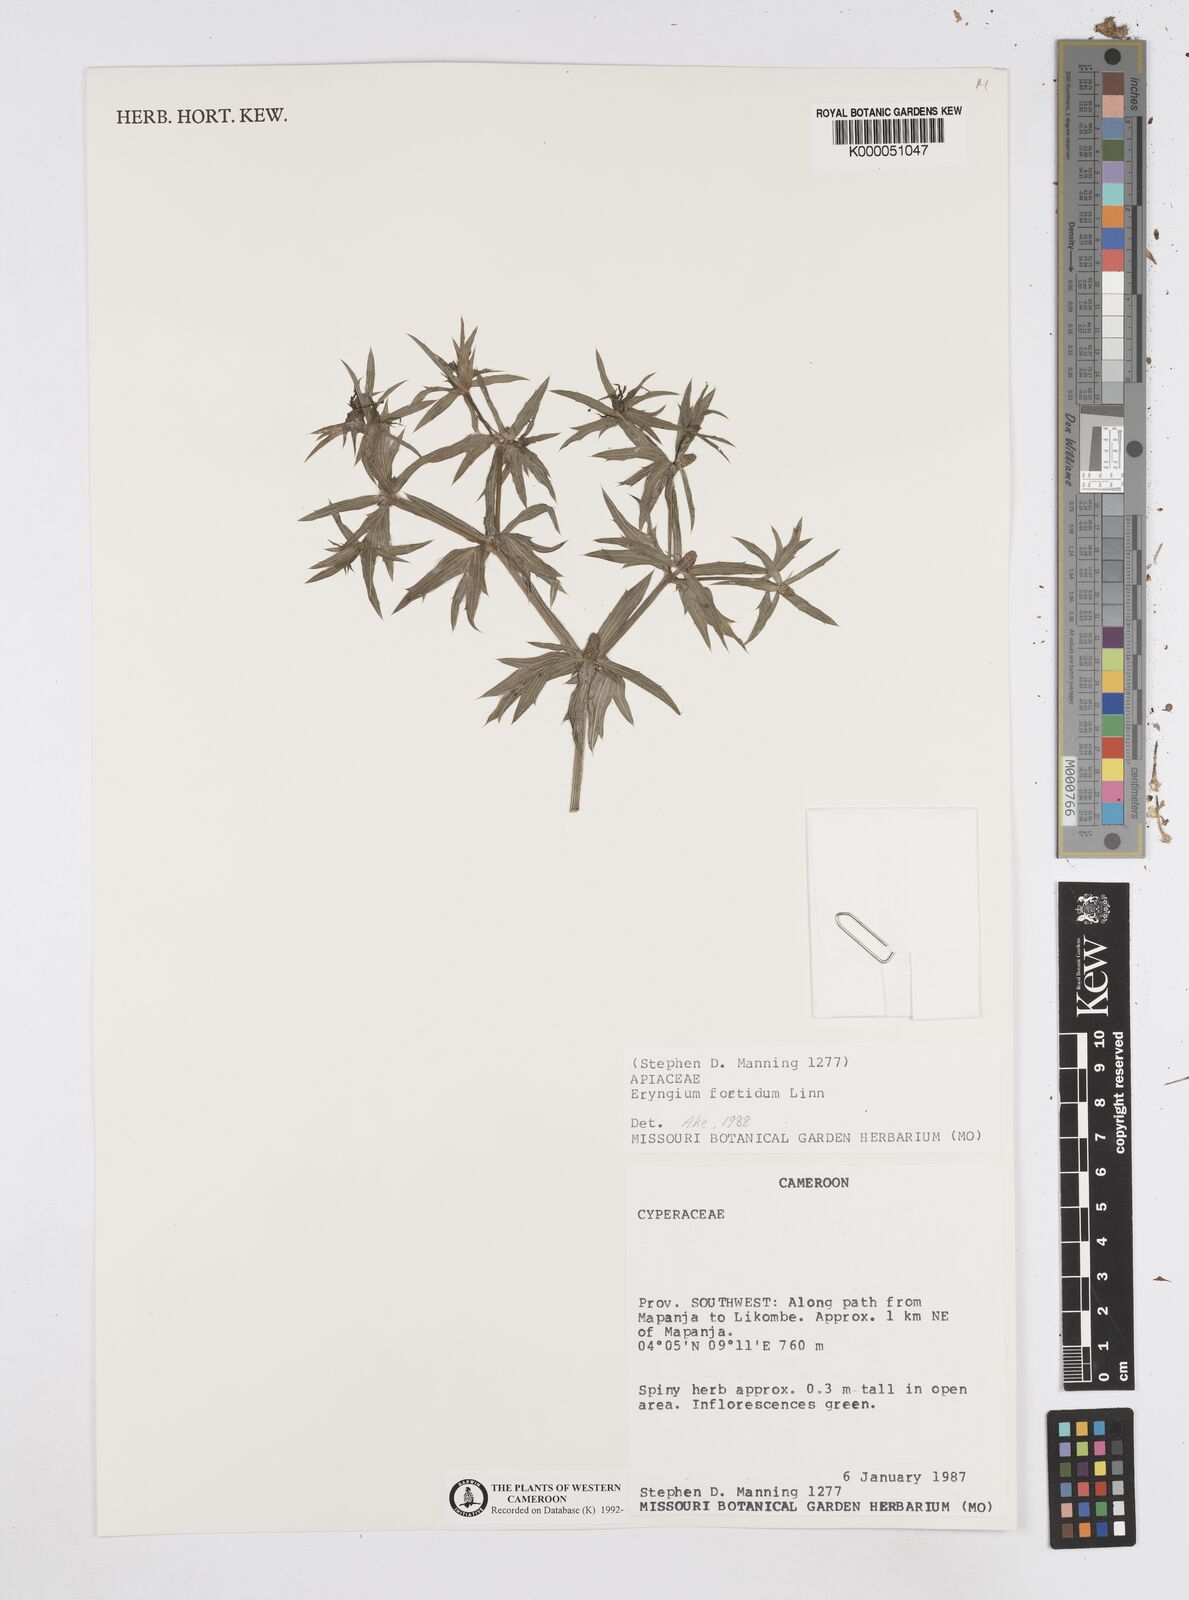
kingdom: Plantae
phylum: Tracheophyta
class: Magnoliopsida
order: Apiales
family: Apiaceae
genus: Eryngium
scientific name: Eryngium foetidum
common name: Fitweed
